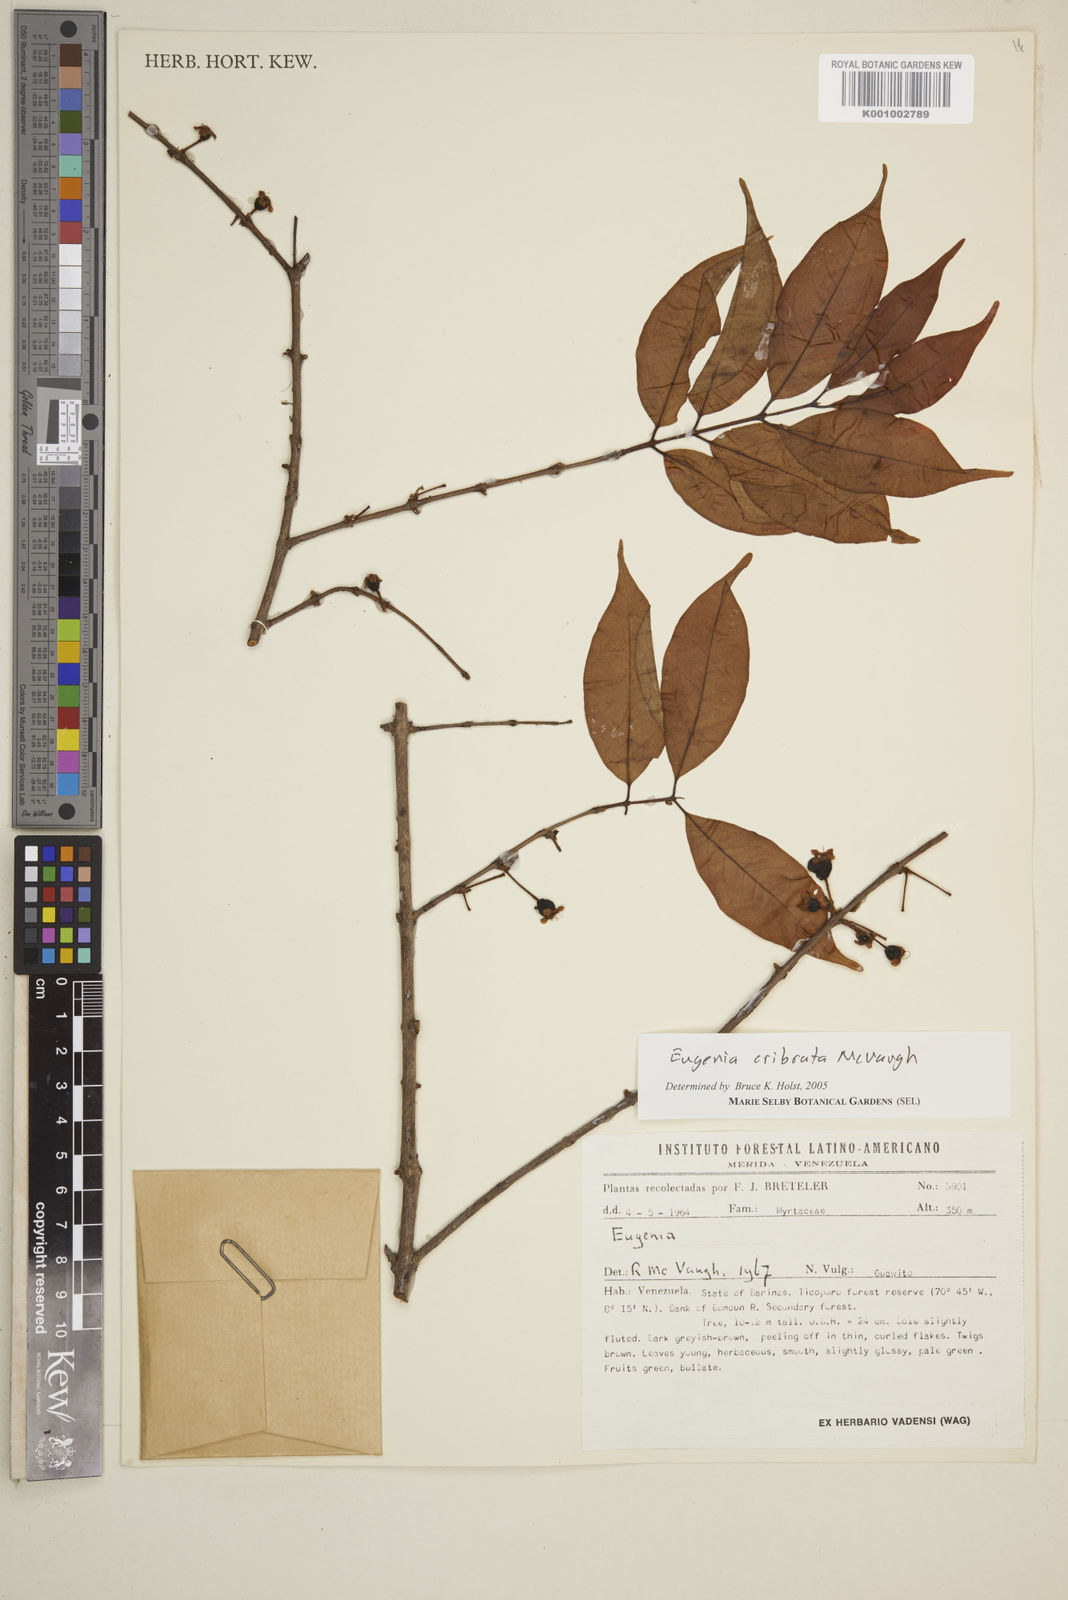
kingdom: Plantae
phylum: Tracheophyta
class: Magnoliopsida
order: Myrtales
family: Myrtaceae
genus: Eugenia
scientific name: Eugenia cribrata
